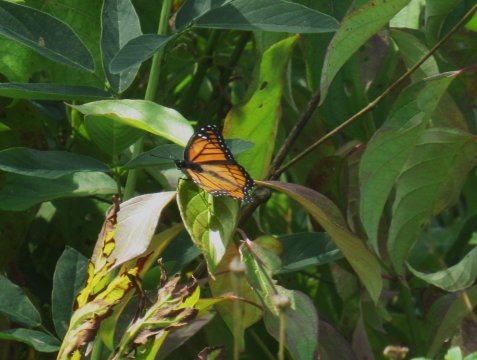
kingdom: Animalia
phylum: Arthropoda
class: Insecta
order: Lepidoptera
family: Nymphalidae
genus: Limenitis
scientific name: Limenitis archippus
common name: Viceroy
